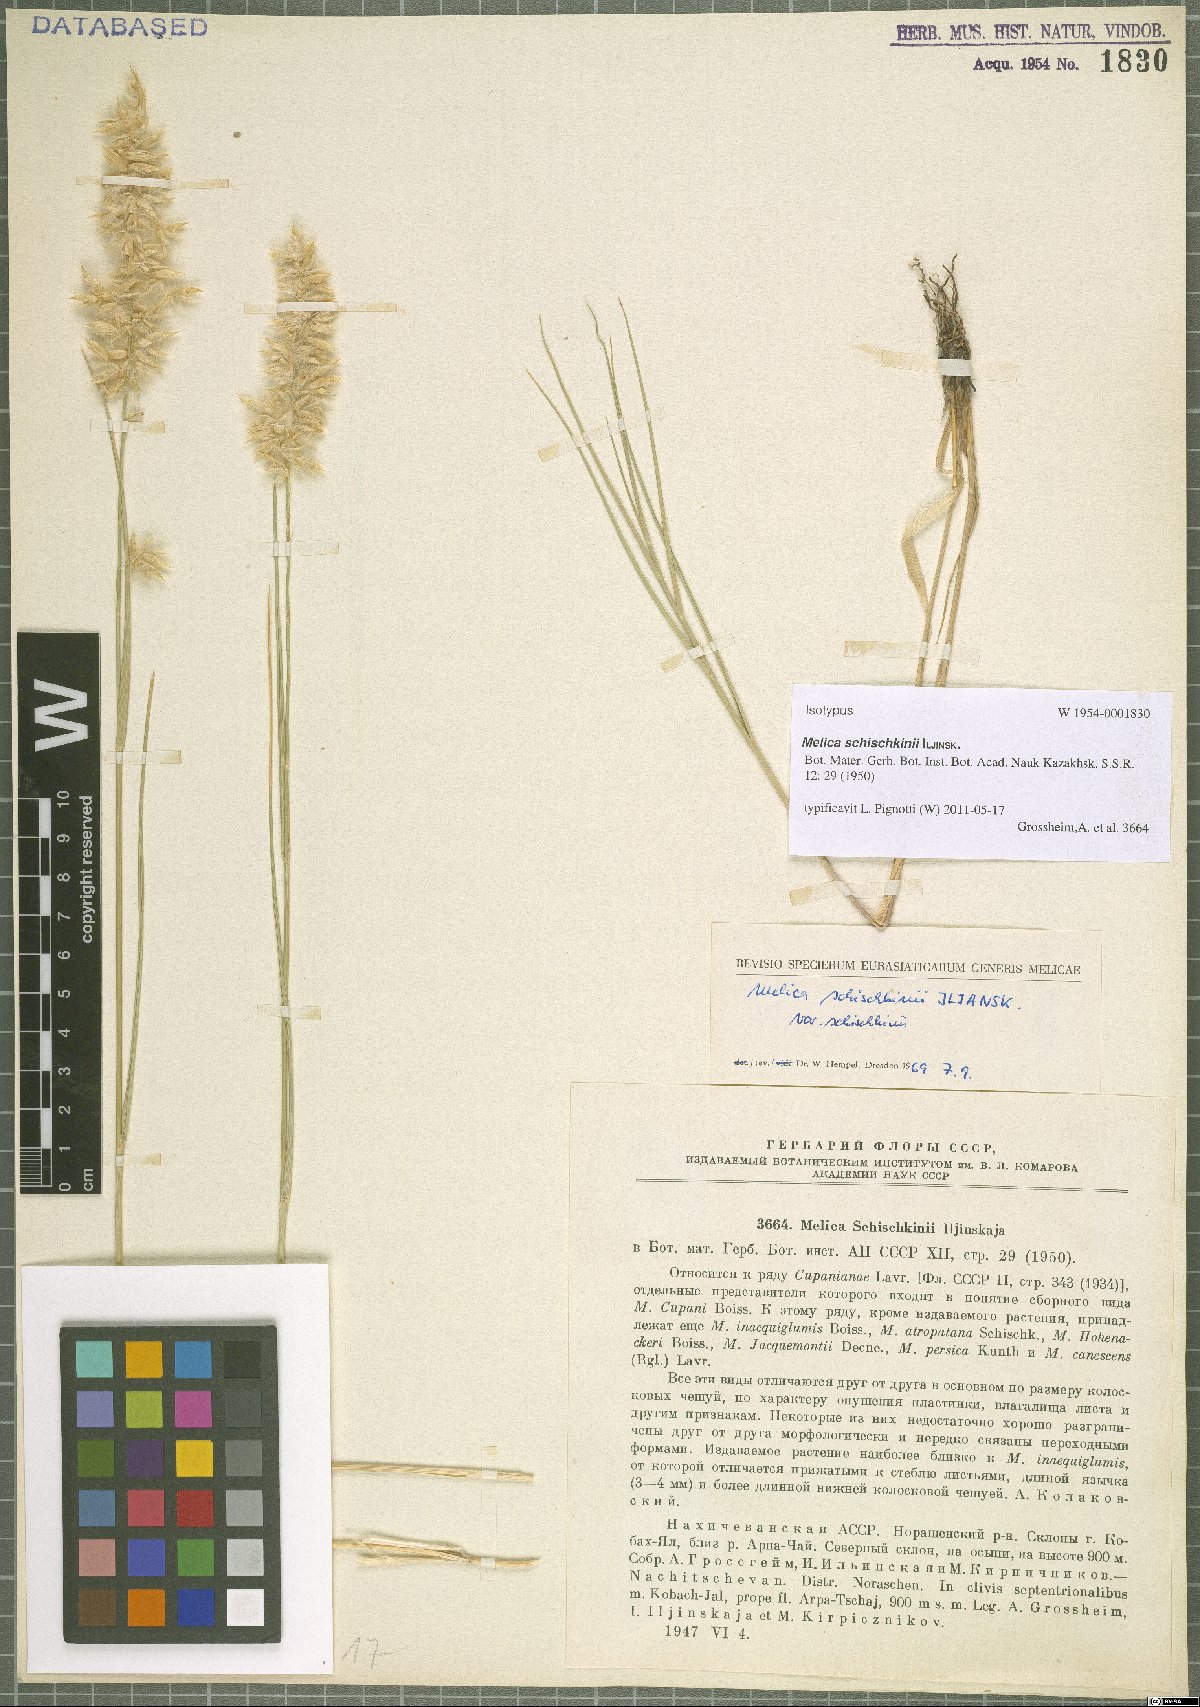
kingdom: Plantae
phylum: Tracheophyta
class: Liliopsida
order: Poales
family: Poaceae
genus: Melica
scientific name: Melica persica
